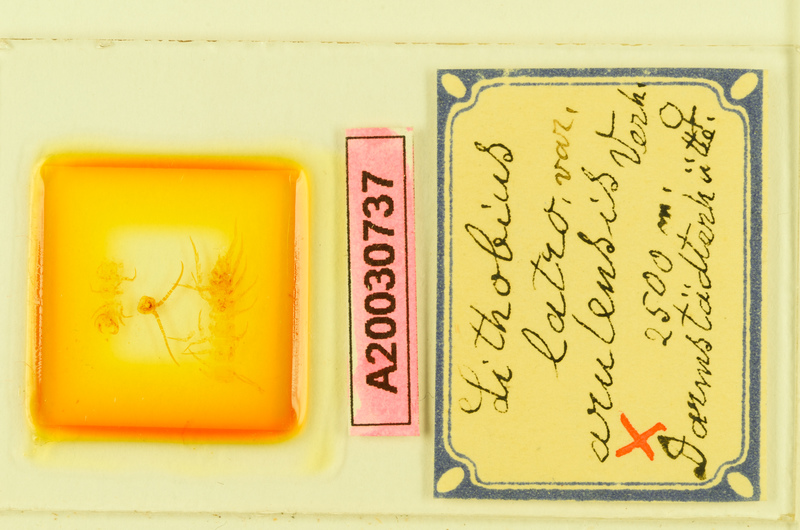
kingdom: Animalia
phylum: Arthropoda
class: Chilopoda
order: Lithobiomorpha
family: Lithobiidae
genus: Lithobius
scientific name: Lithobius latro
